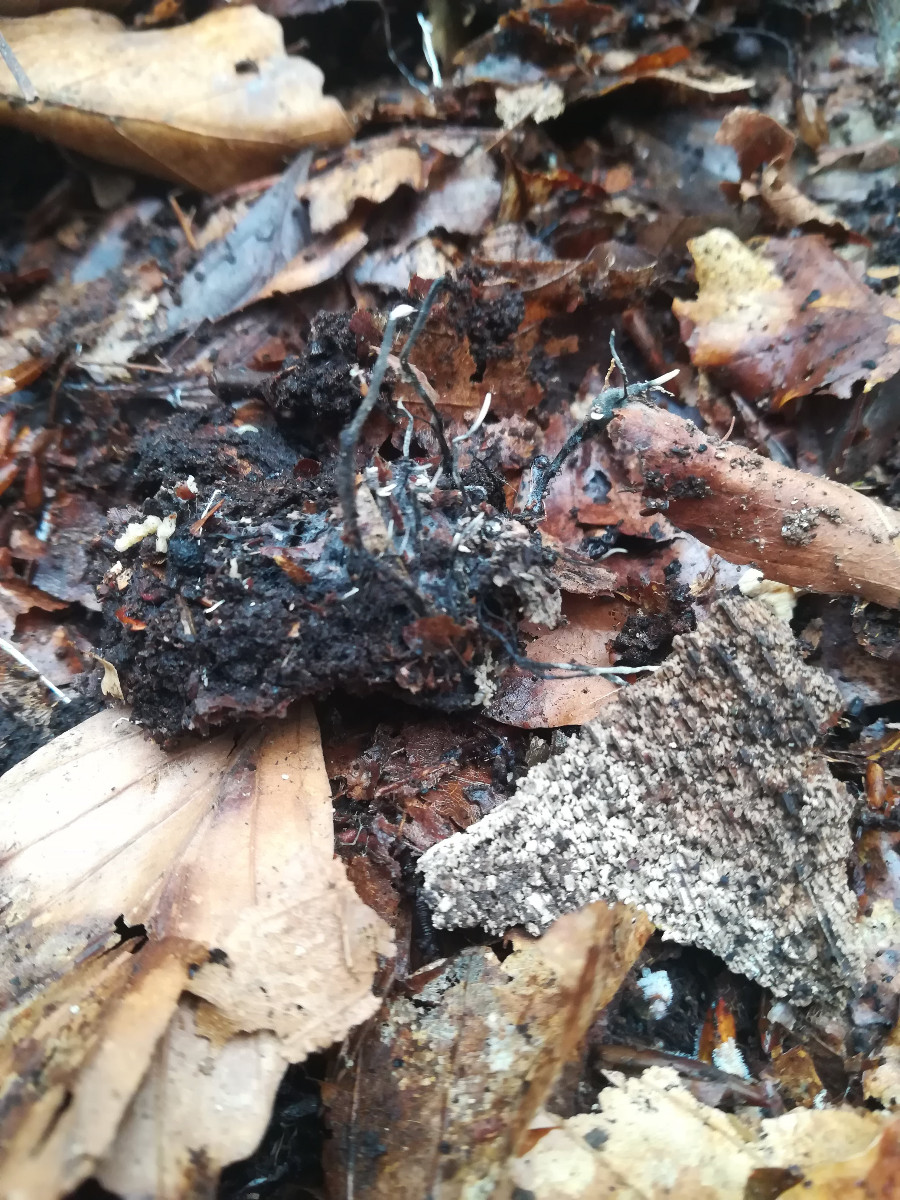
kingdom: Fungi
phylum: Ascomycota
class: Sordariomycetes
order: Xylariales
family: Xylariaceae
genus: Xylaria
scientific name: Xylaria carpophila
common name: bogskål-stødsvamp
